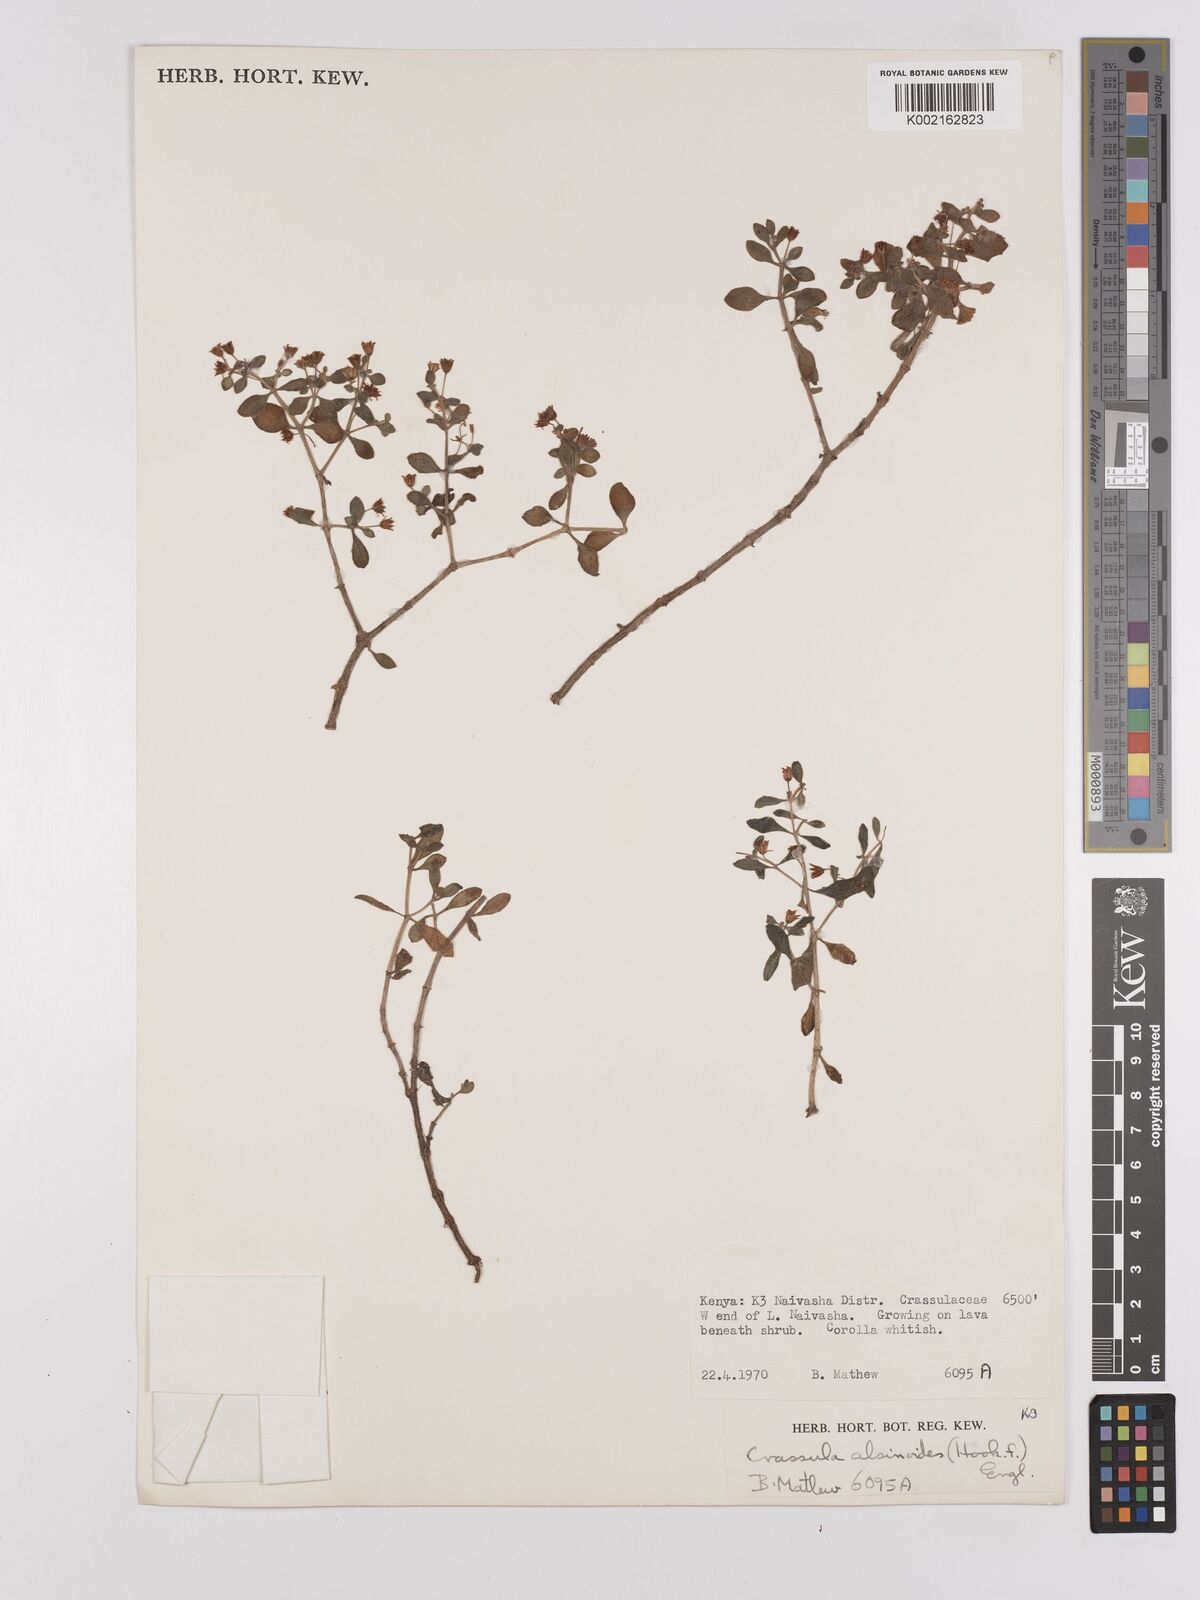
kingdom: Plantae
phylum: Tracheophyta
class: Magnoliopsida
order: Saxifragales
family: Crassulaceae
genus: Crassula
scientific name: Crassula volkensii
